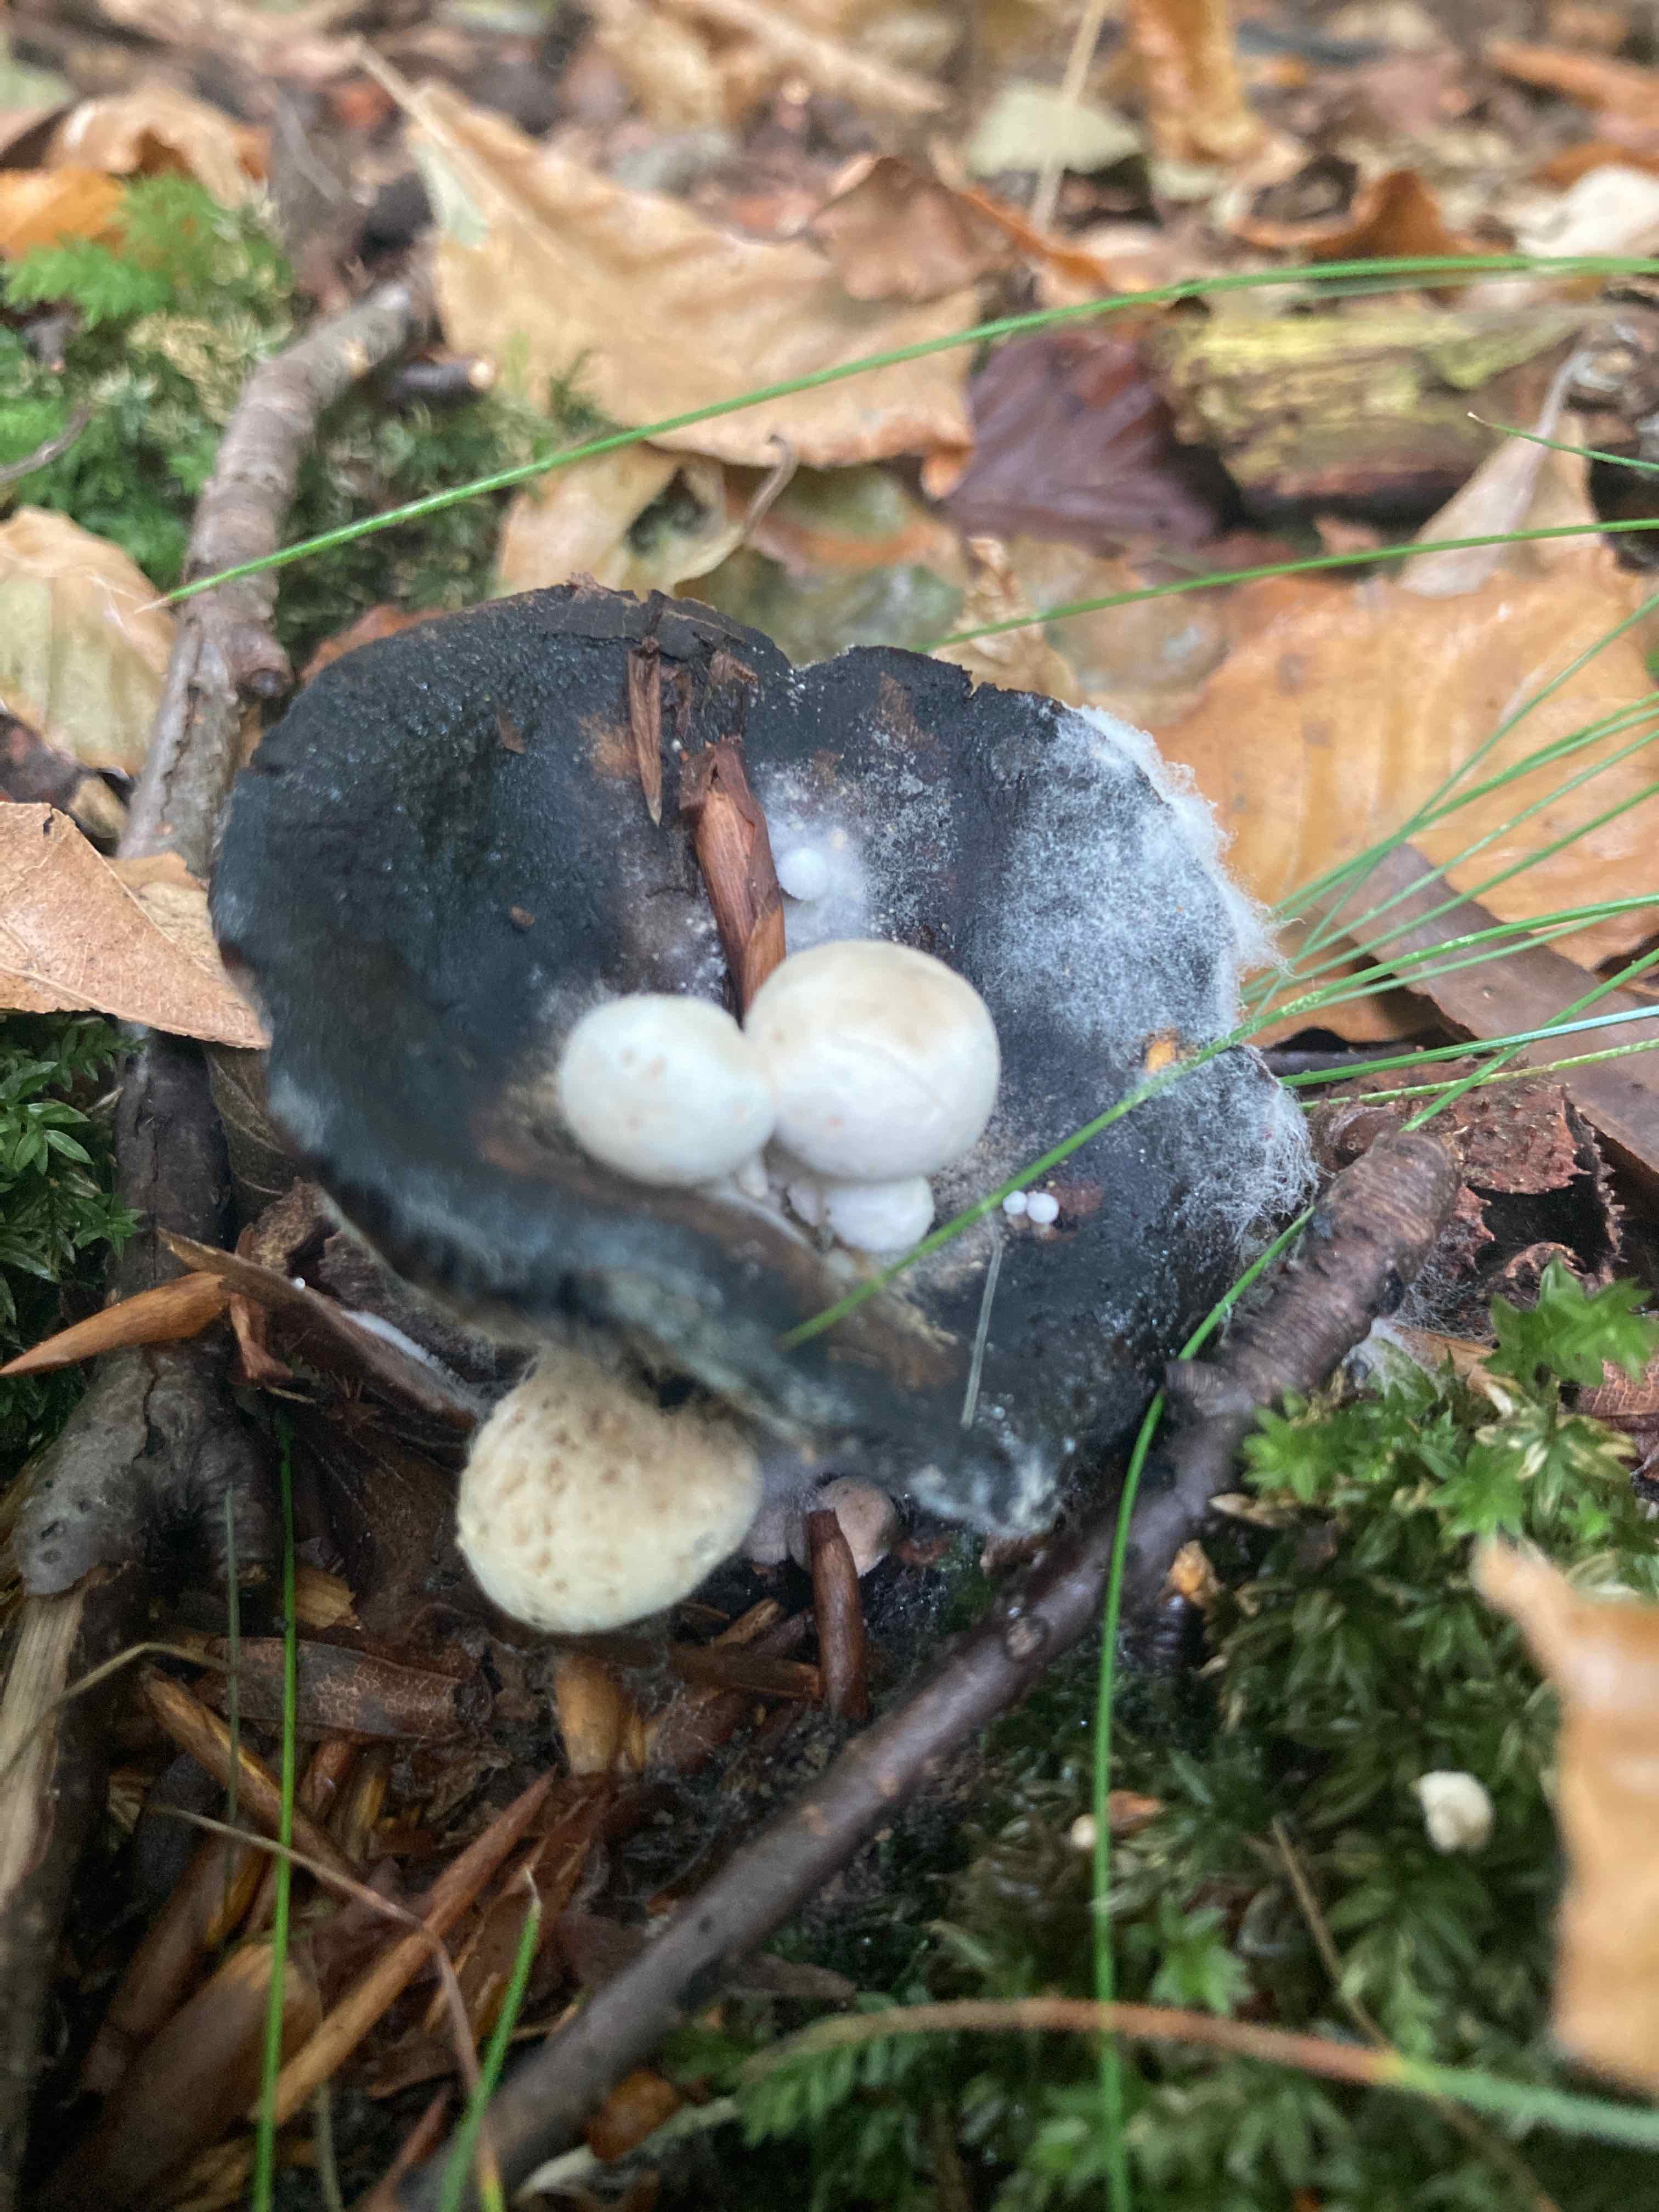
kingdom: Fungi
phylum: Basidiomycota
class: Agaricomycetes
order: Agaricales
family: Lyophyllaceae
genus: Asterophora
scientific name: Asterophora lycoperdoides
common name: brunpudret snyltehat
